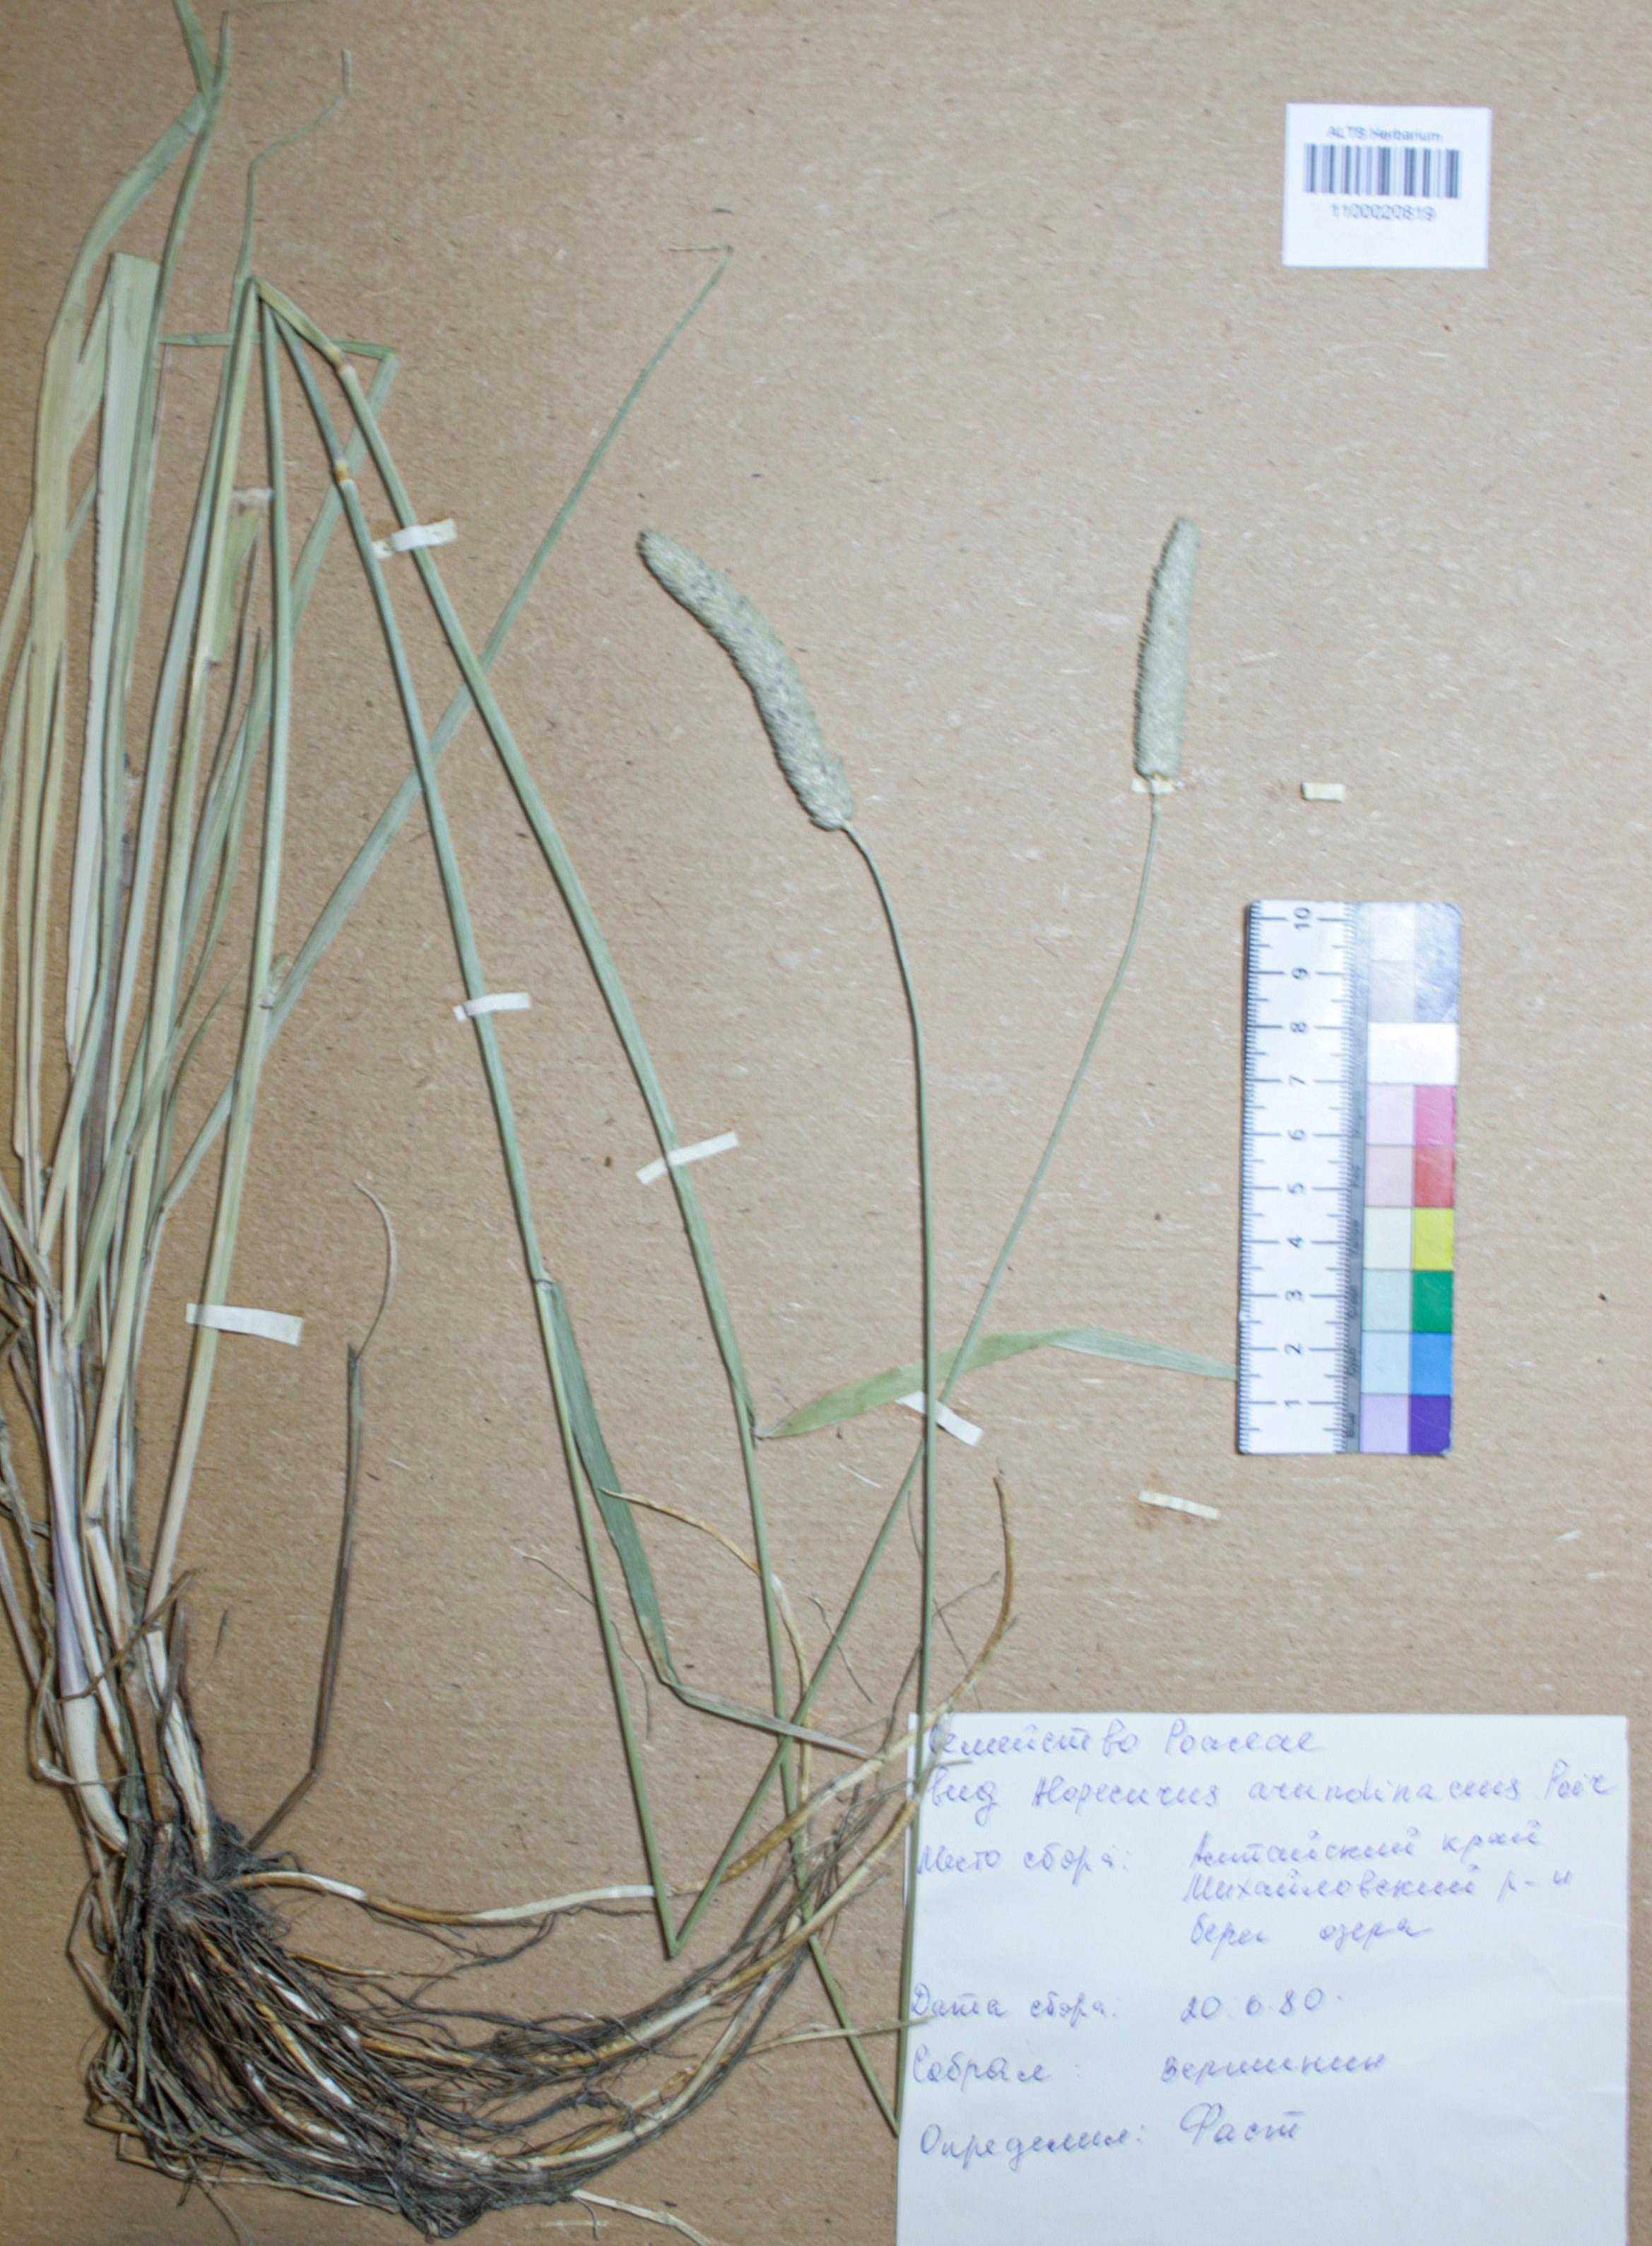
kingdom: Plantae
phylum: Tracheophyta
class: Liliopsida
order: Poales
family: Poaceae
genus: Alopecurus
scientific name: Alopecurus arundinaceus
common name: Creeping meadow foxtail
